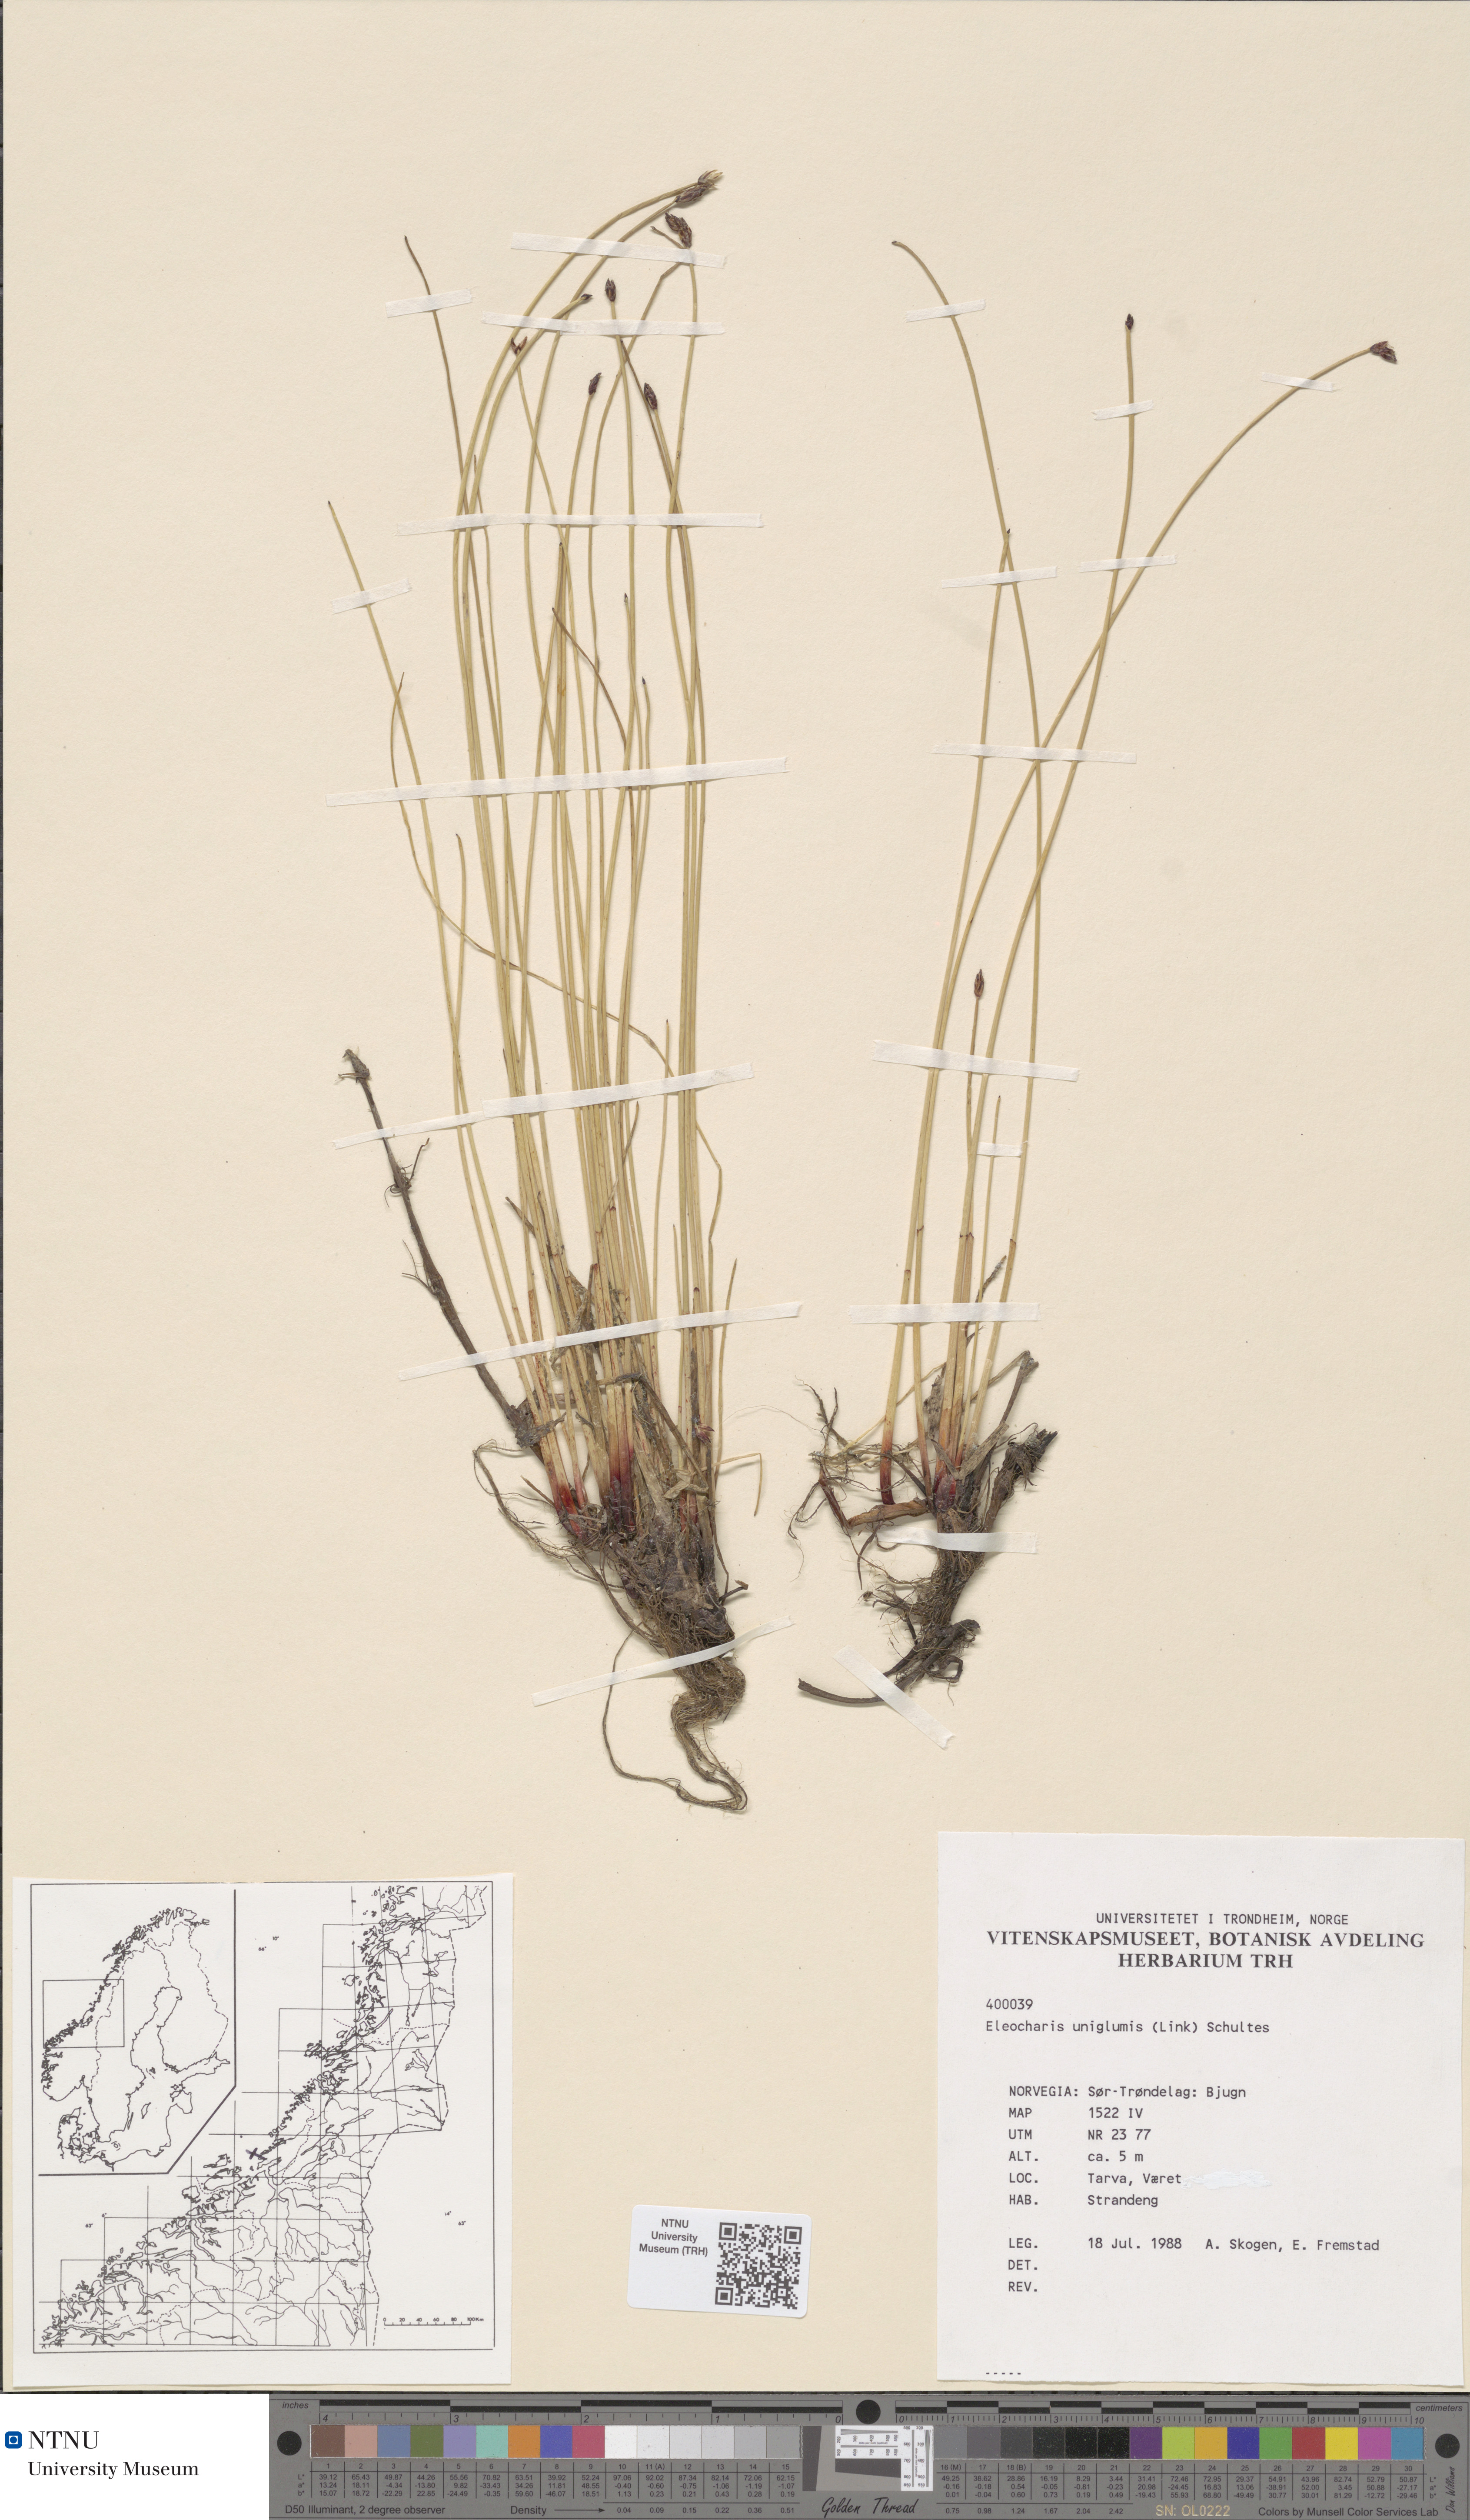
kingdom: Plantae
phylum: Tracheophyta
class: Liliopsida
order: Poales
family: Cyperaceae
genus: Eleocharis
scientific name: Eleocharis uniglumis
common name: Slender spike-rush
